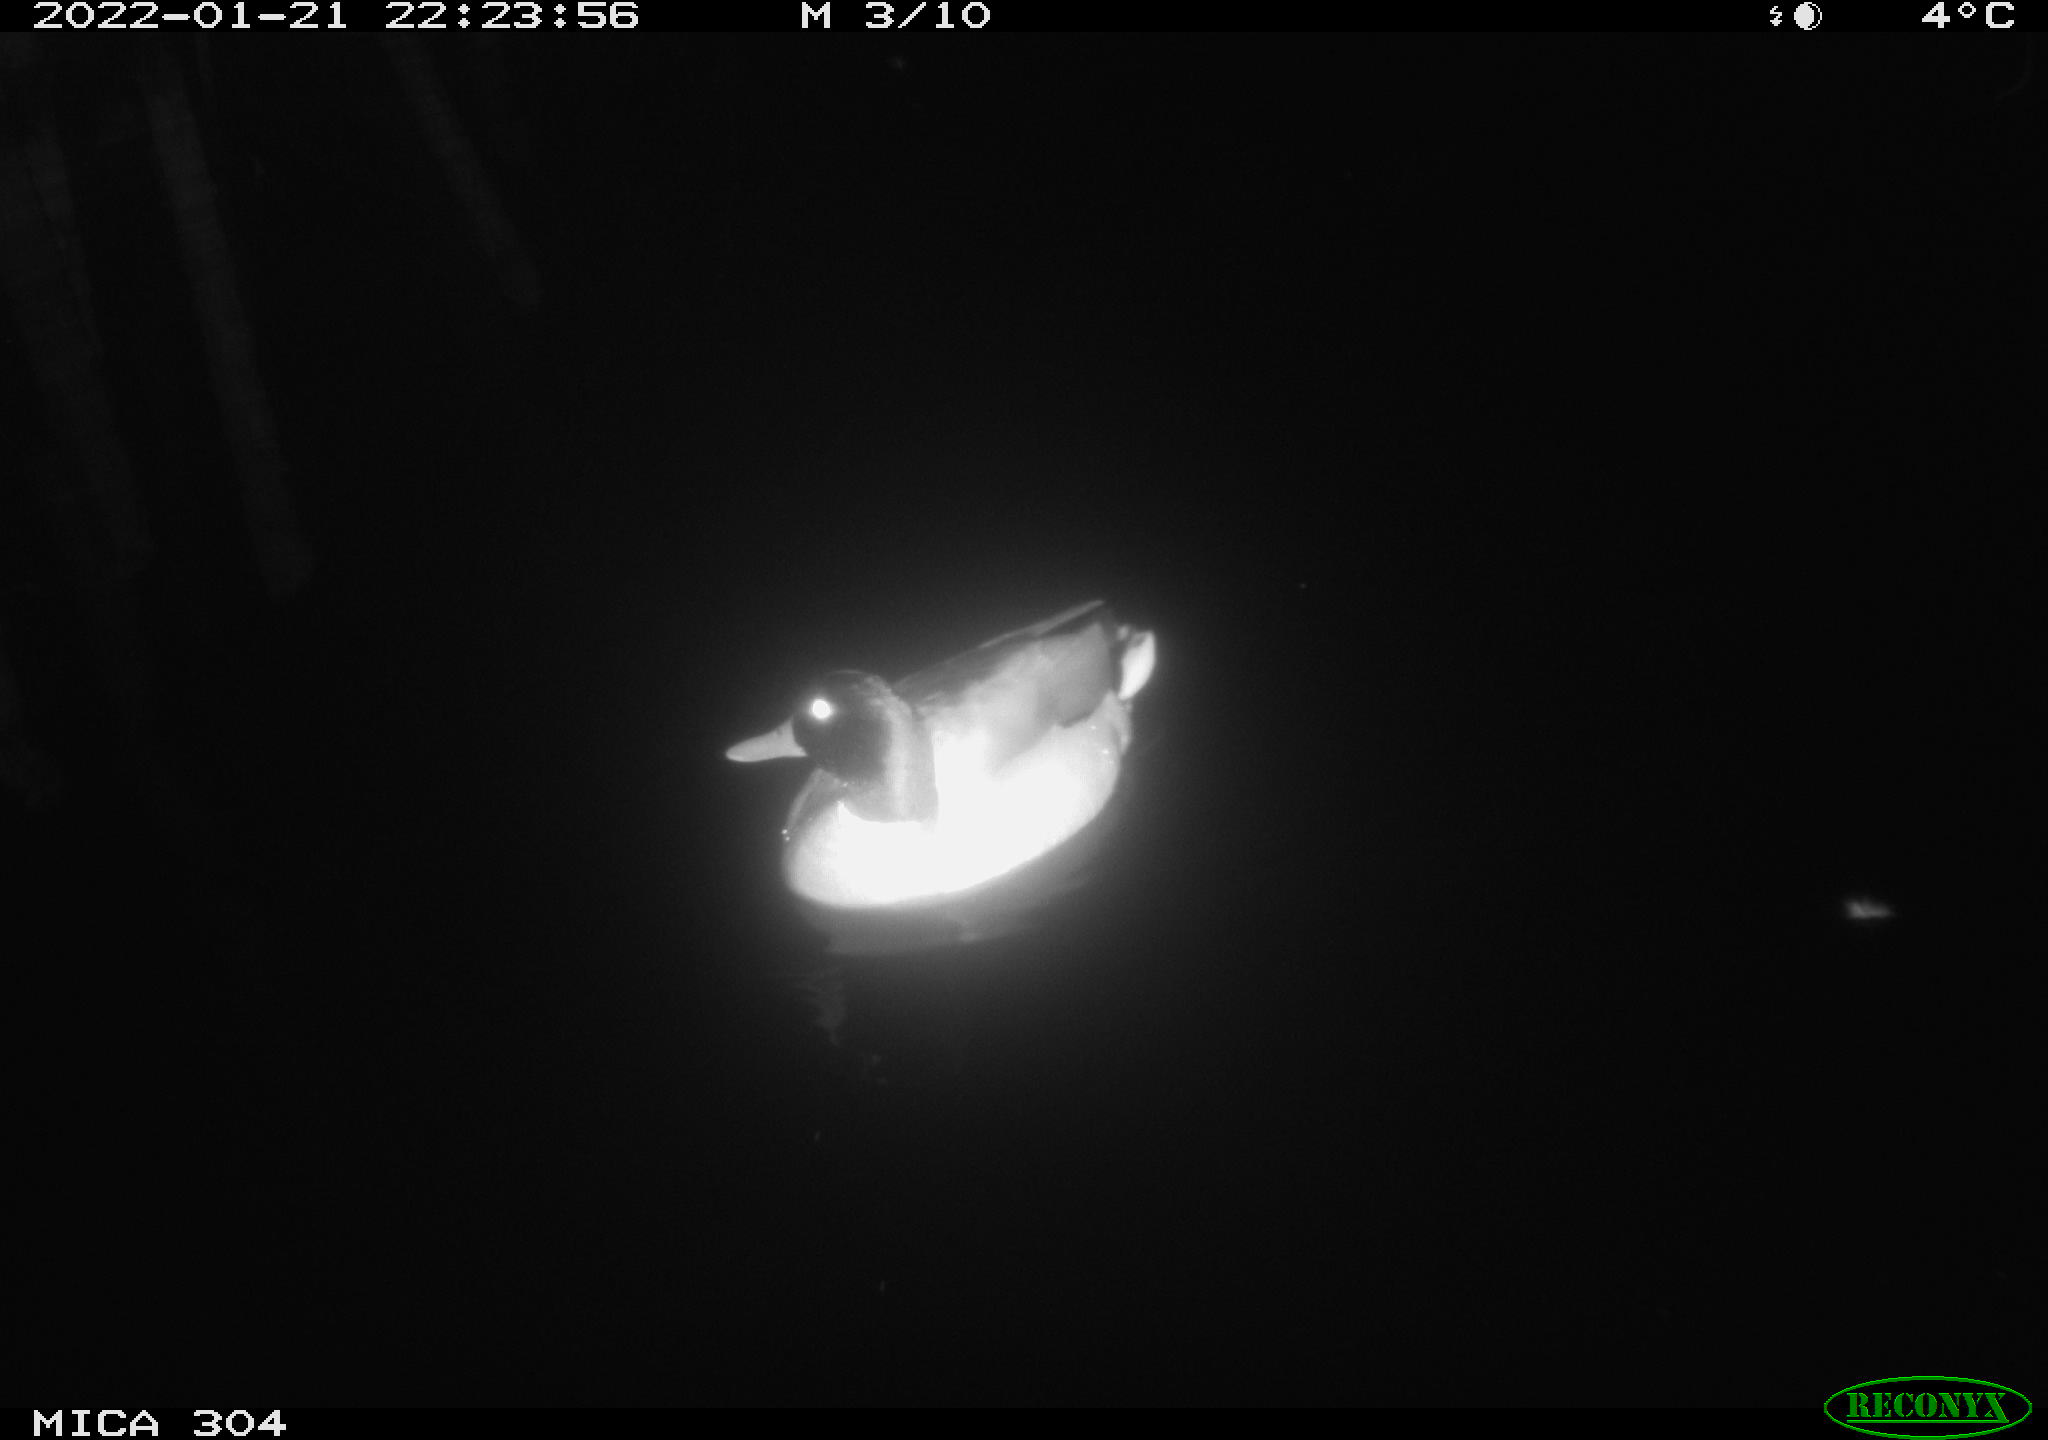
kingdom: Animalia
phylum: Chordata
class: Aves
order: Anseriformes
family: Anatidae
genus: Anas
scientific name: Anas
